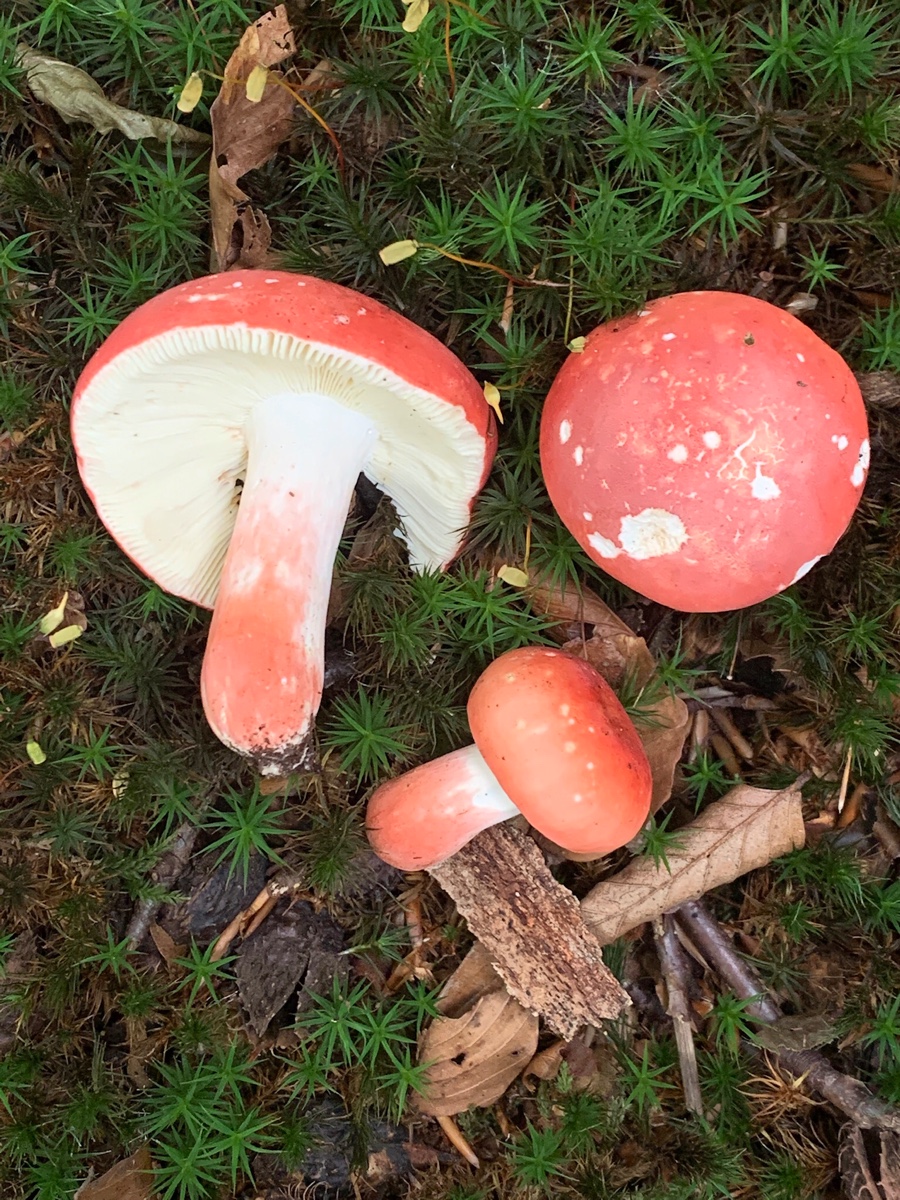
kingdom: Fungi
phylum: Basidiomycota
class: Agaricomycetes
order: Russulales
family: Russulaceae
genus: Russula
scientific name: Russula rosea
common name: fastkødet skørhat
